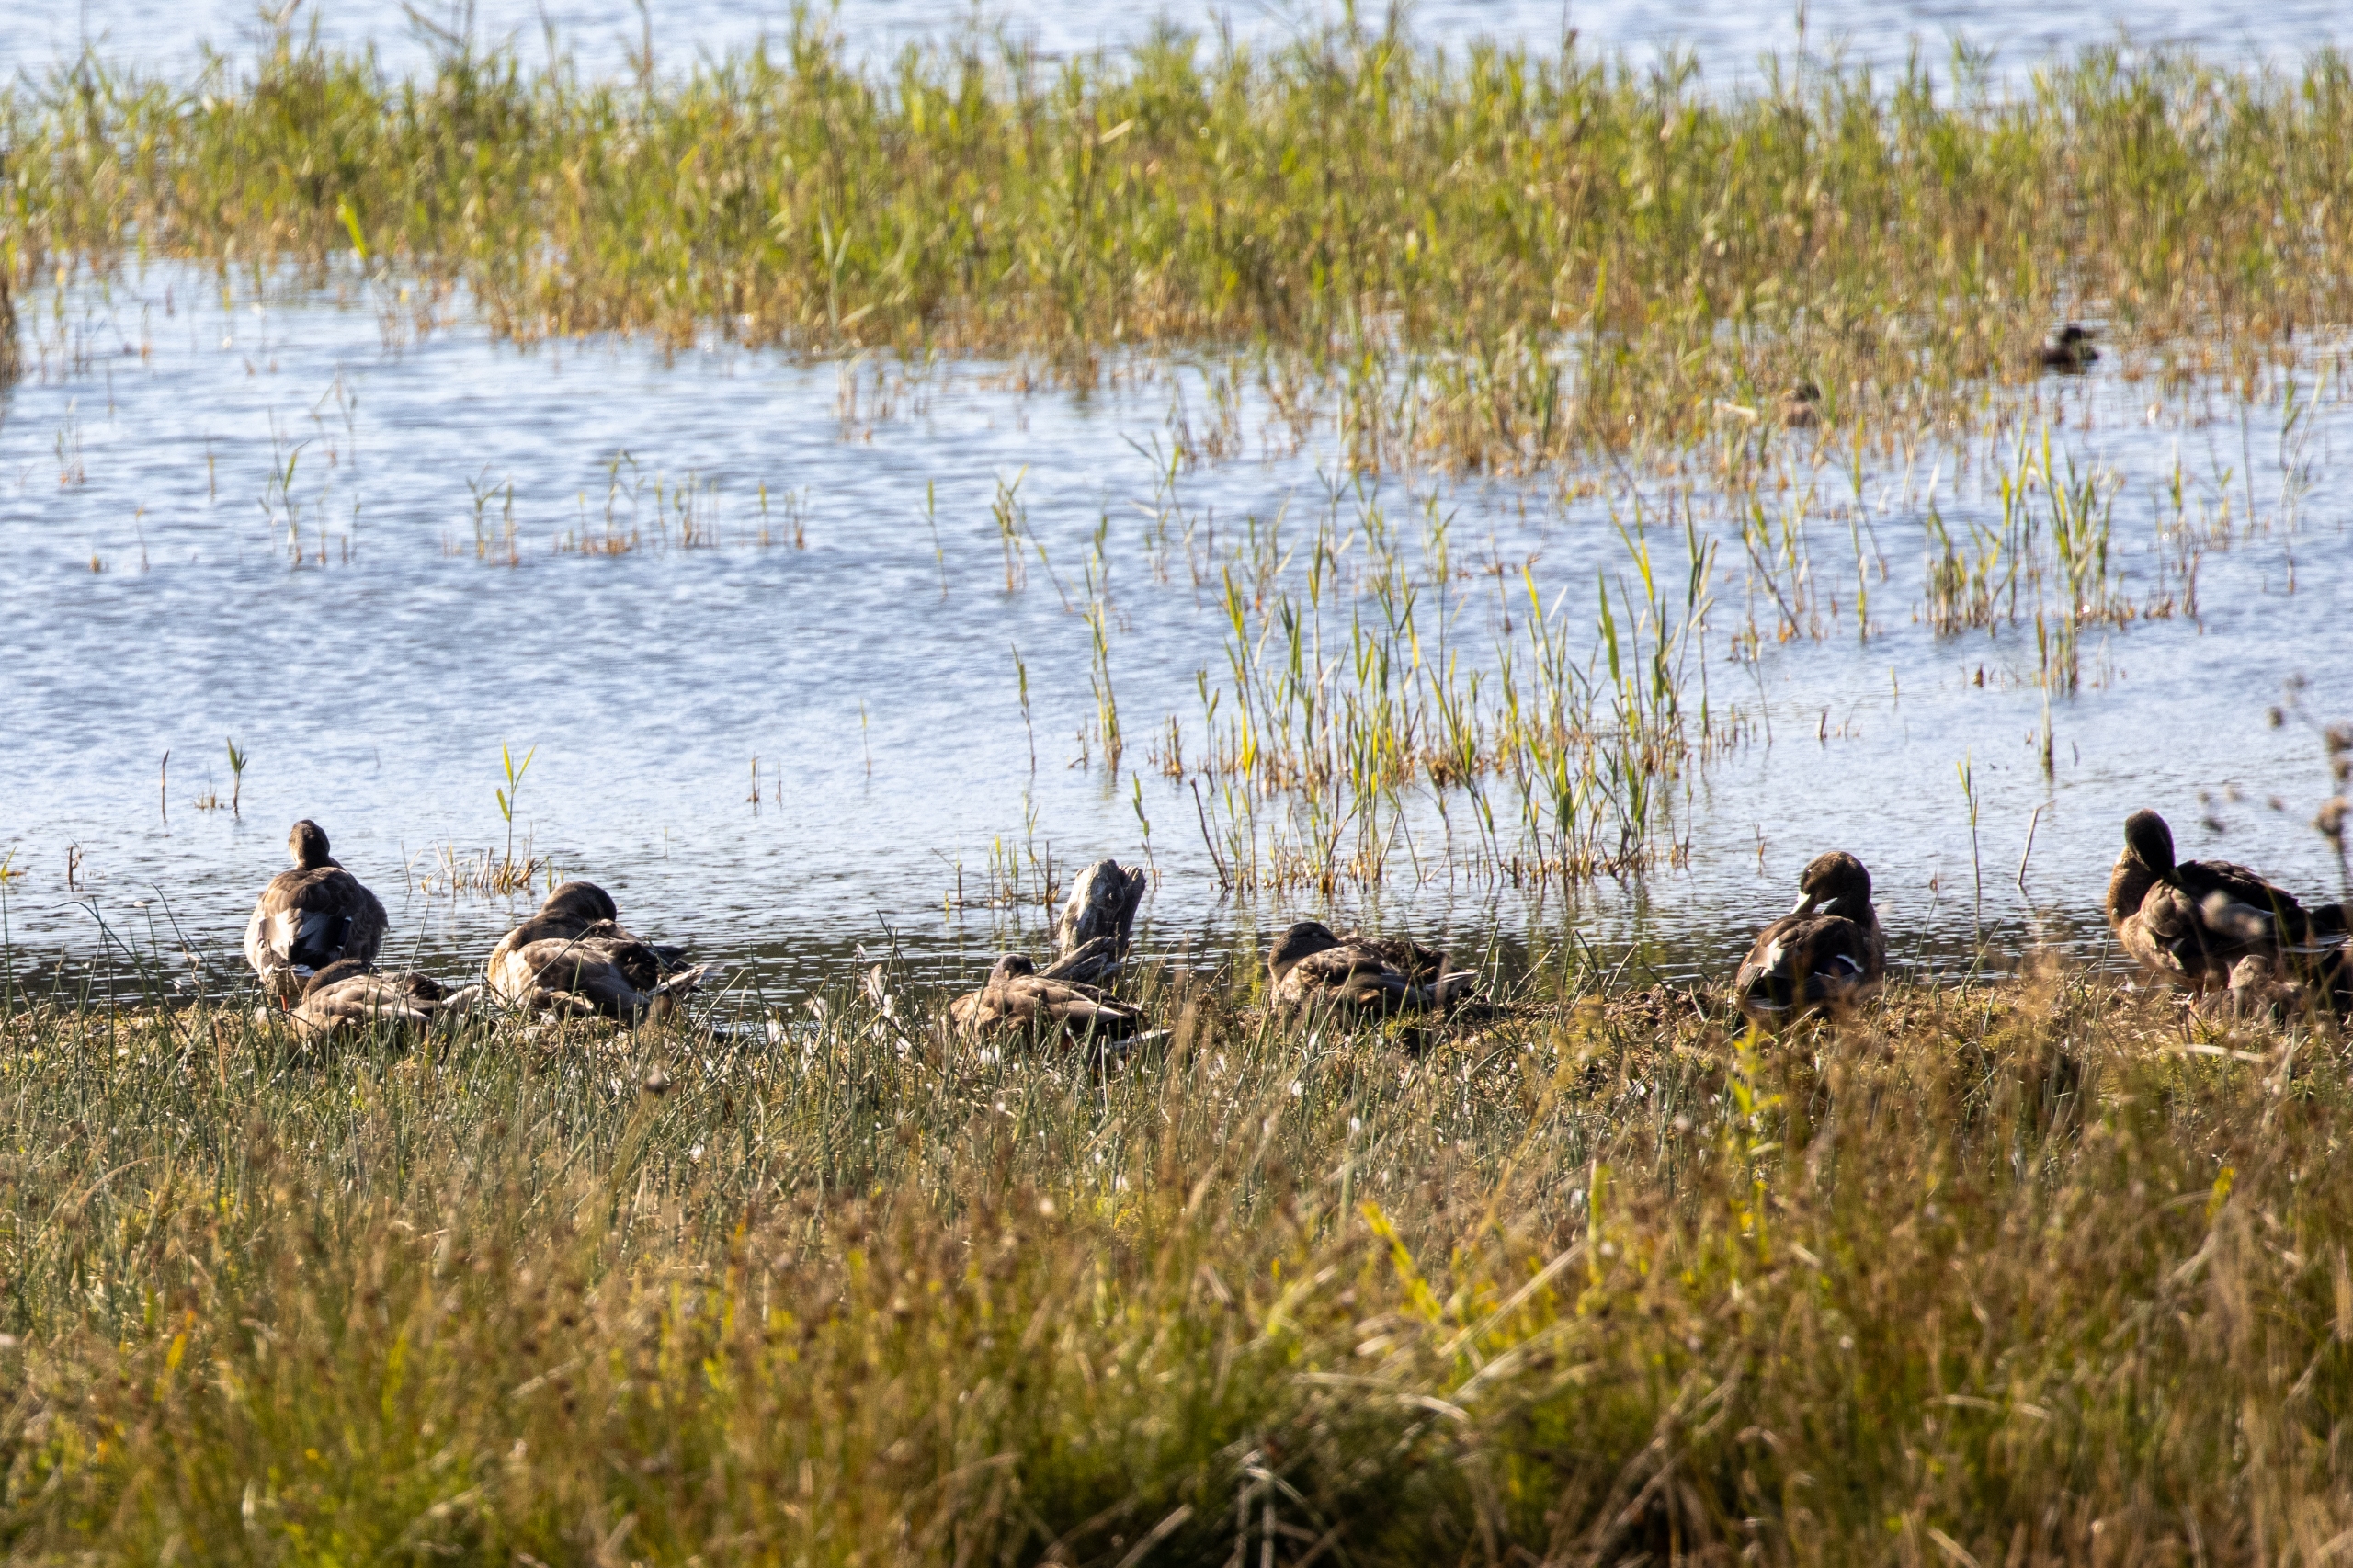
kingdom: Animalia
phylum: Chordata
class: Aves
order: Anseriformes
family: Anatidae
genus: Anas
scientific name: Anas platyrhynchos
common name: Gråand
